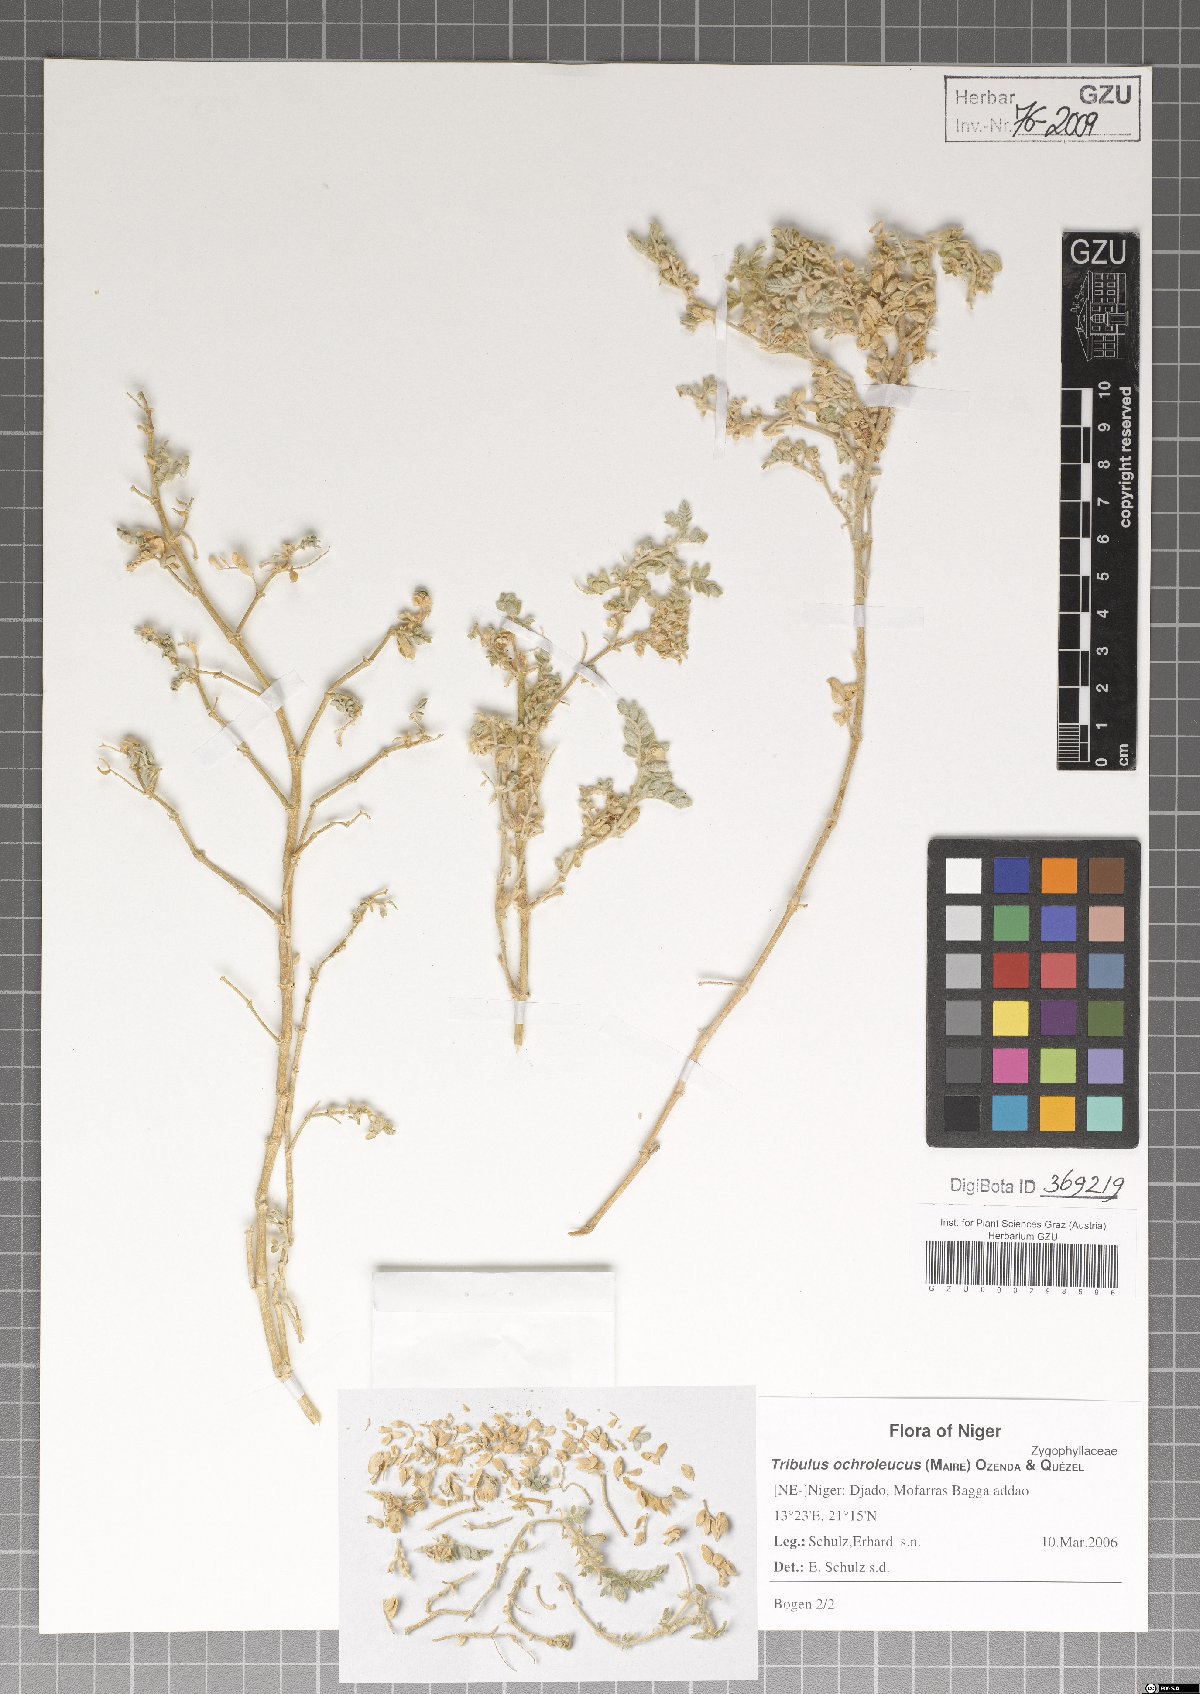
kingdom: Plantae
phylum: Tracheophyta
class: Magnoliopsida
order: Zygophyllales
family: Zygophyllaceae
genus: Tribulus
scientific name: Tribulus ochroleucus
